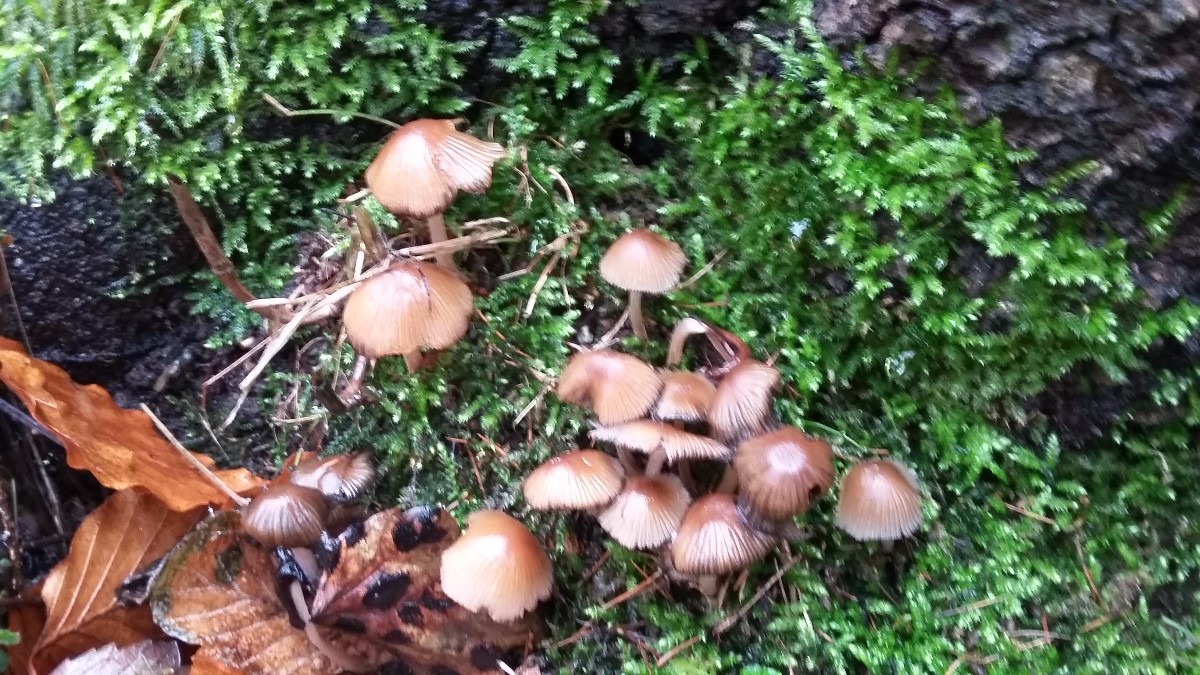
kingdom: Fungi
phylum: Basidiomycota
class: Agaricomycetes
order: Agaricales
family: Psathyrellaceae
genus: Coprinellus
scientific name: Coprinellus micaceus
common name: glimmer-blækhat
